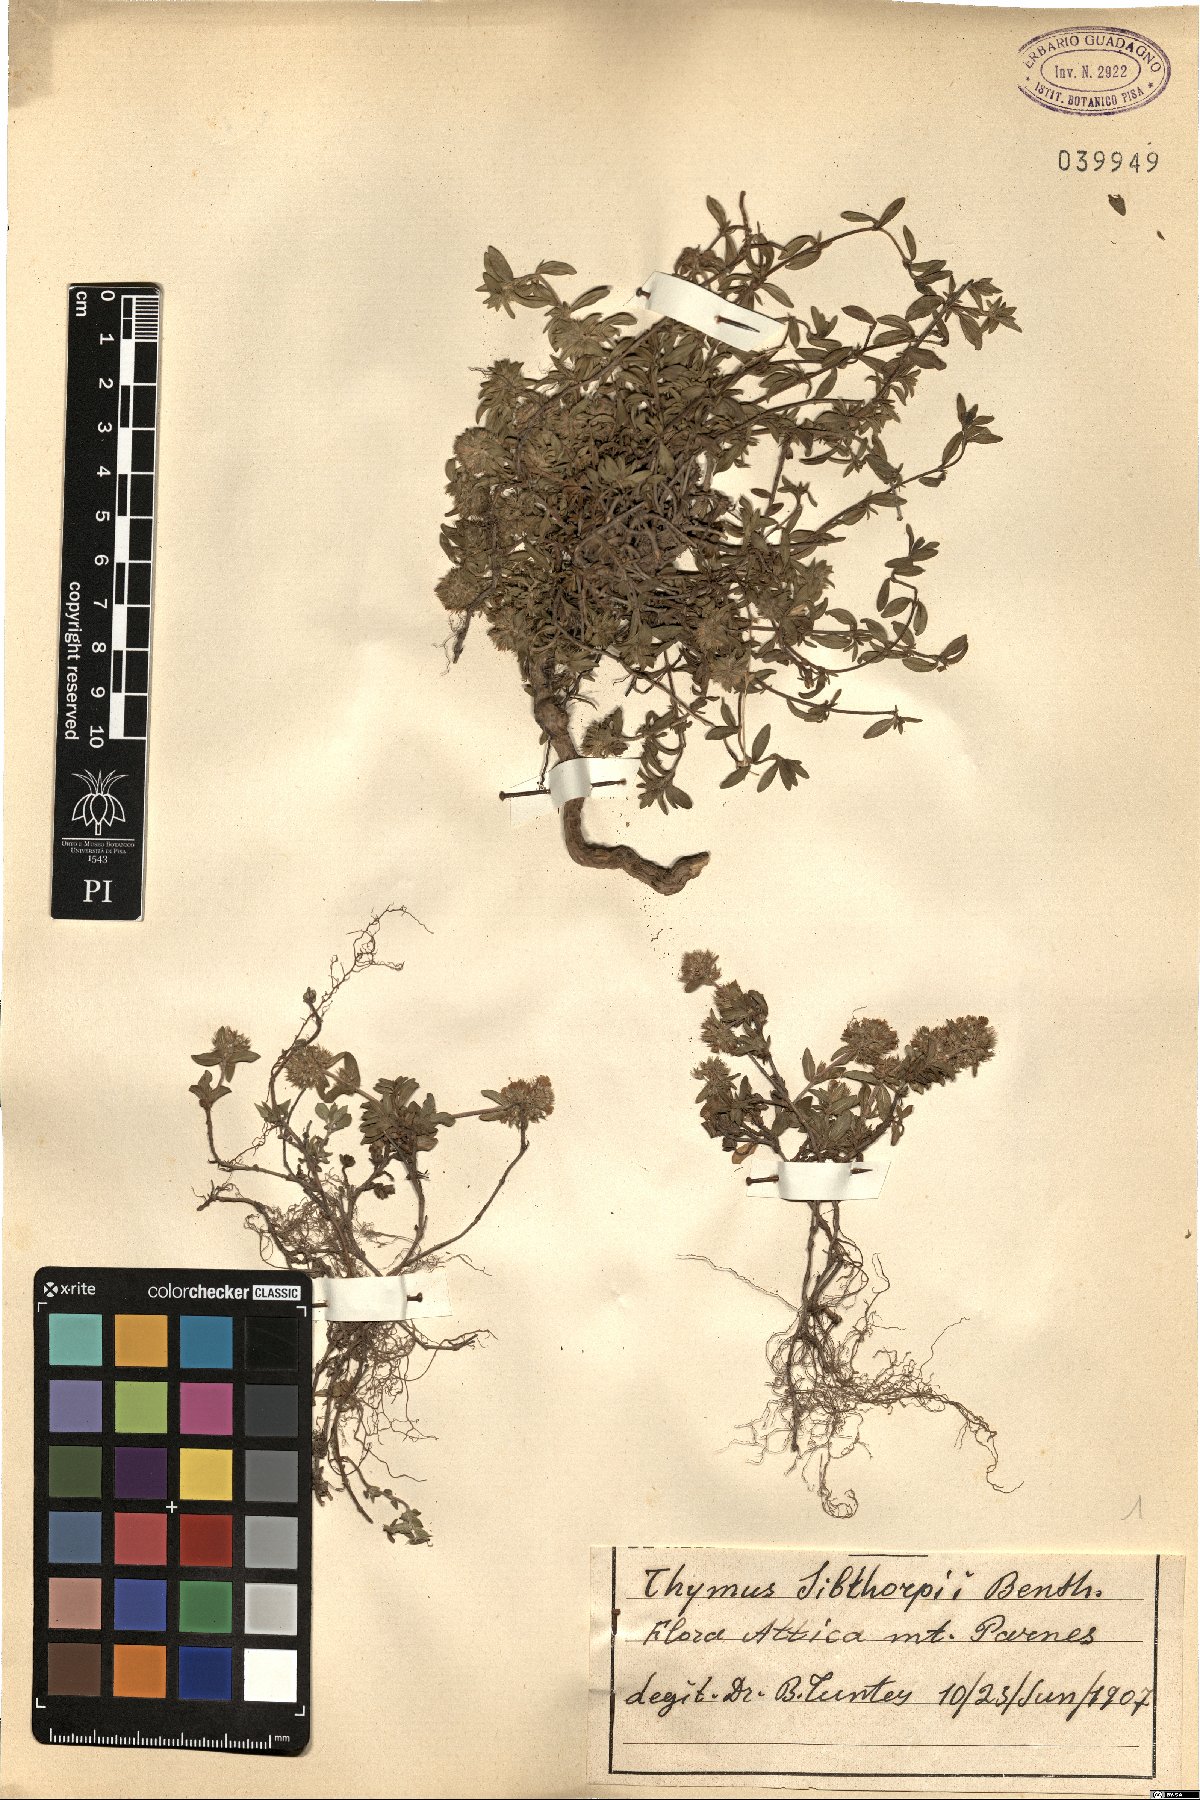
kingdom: Plantae
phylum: Tracheophyta
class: Magnoliopsida
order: Lamiales
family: Lamiaceae
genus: Thymus
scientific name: Thymus sibthorpii
